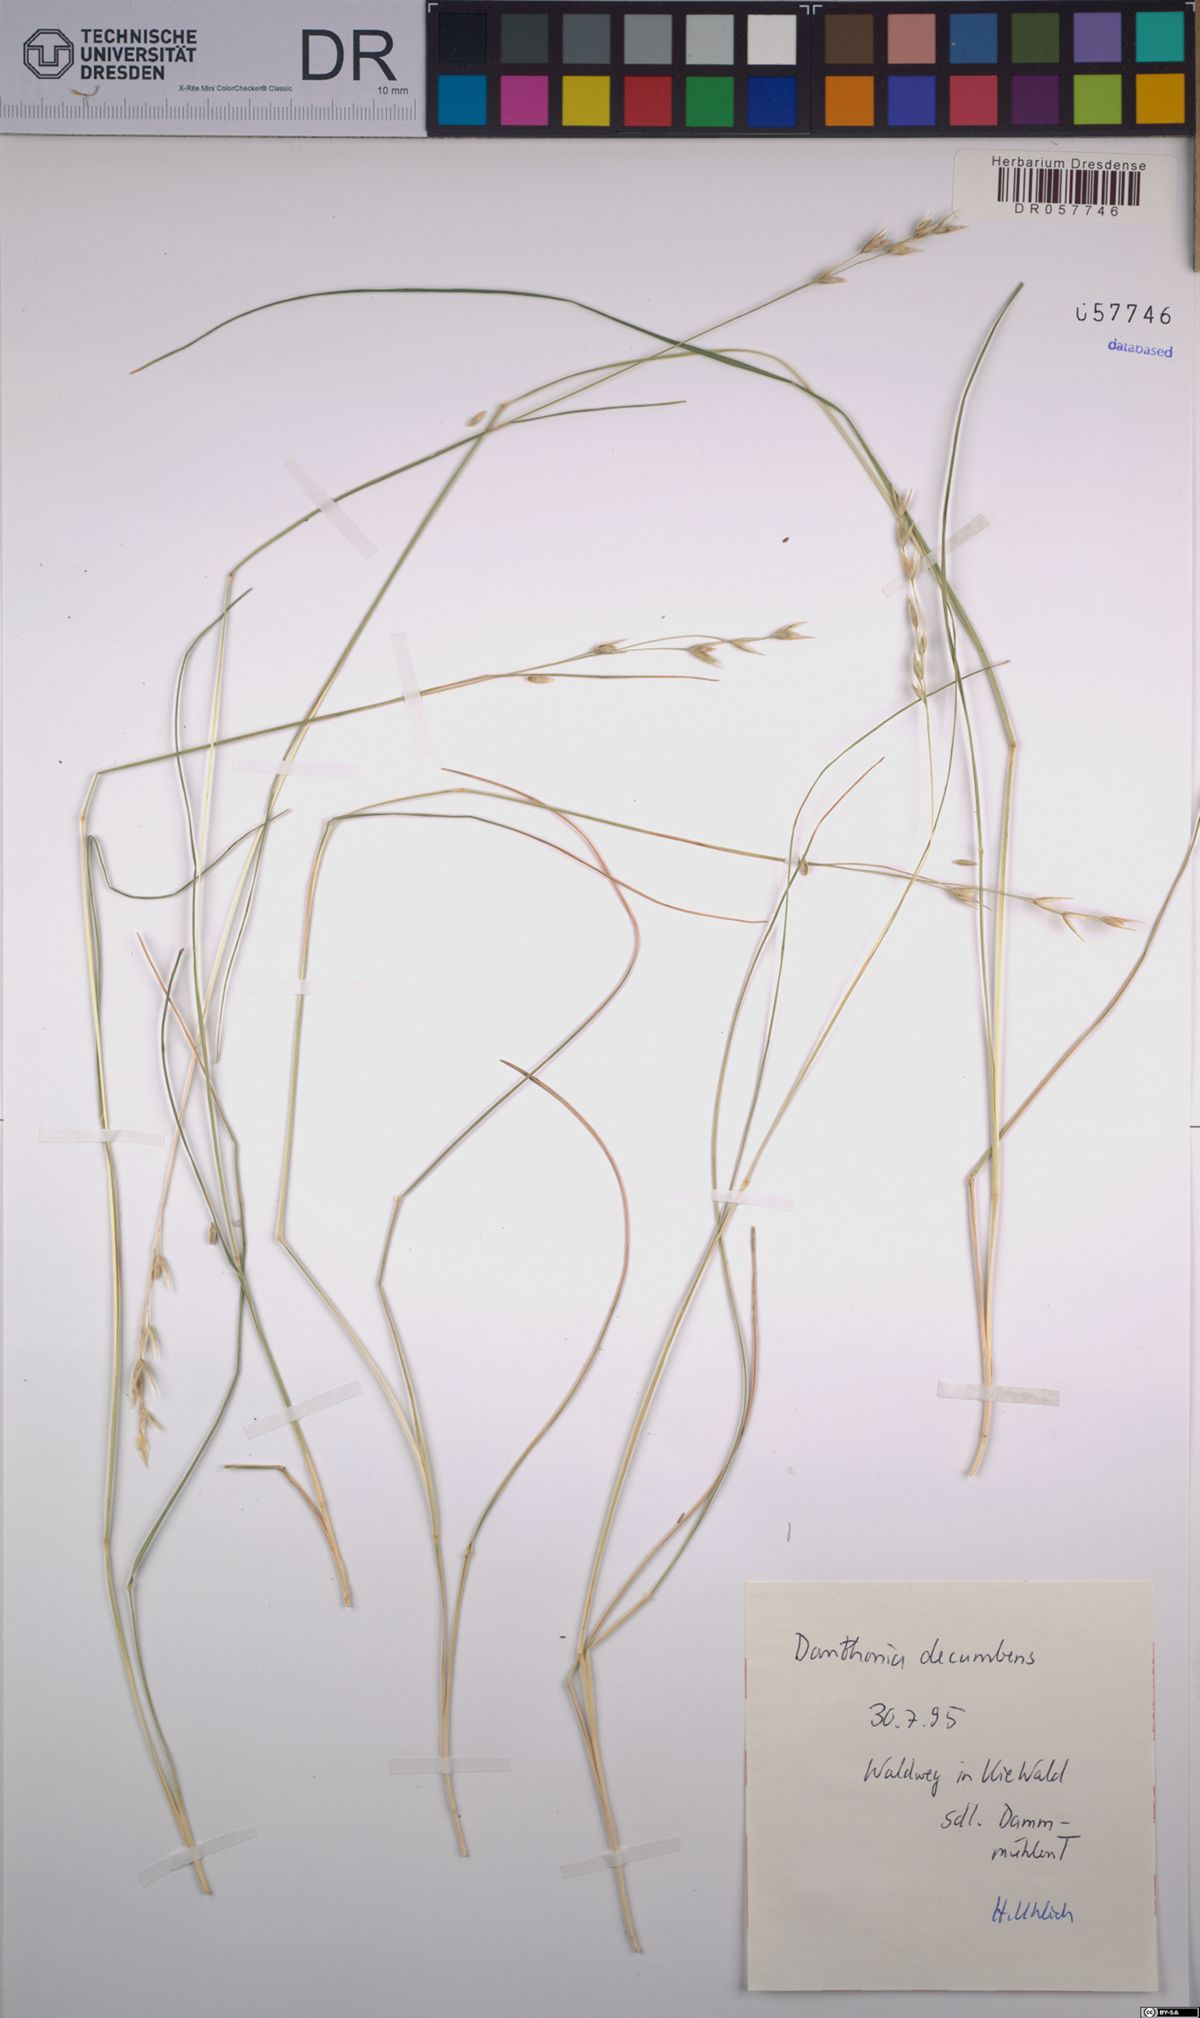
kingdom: Plantae
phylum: Tracheophyta
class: Liliopsida
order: Poales
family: Poaceae
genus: Danthonia
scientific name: Danthonia decumbens
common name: Common heathgrass
